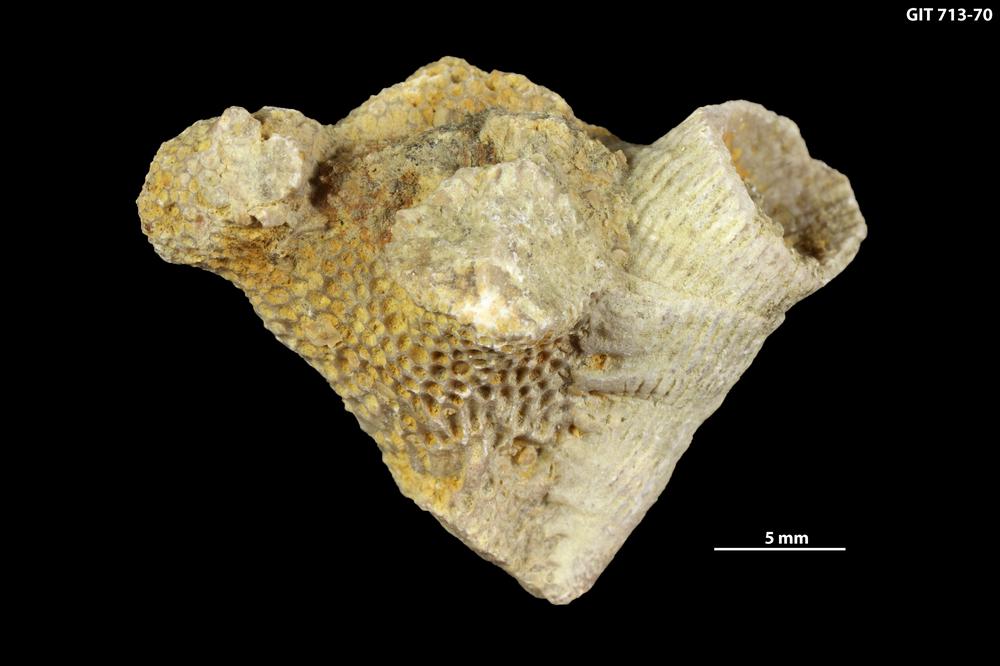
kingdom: Animalia
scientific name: Animalia
